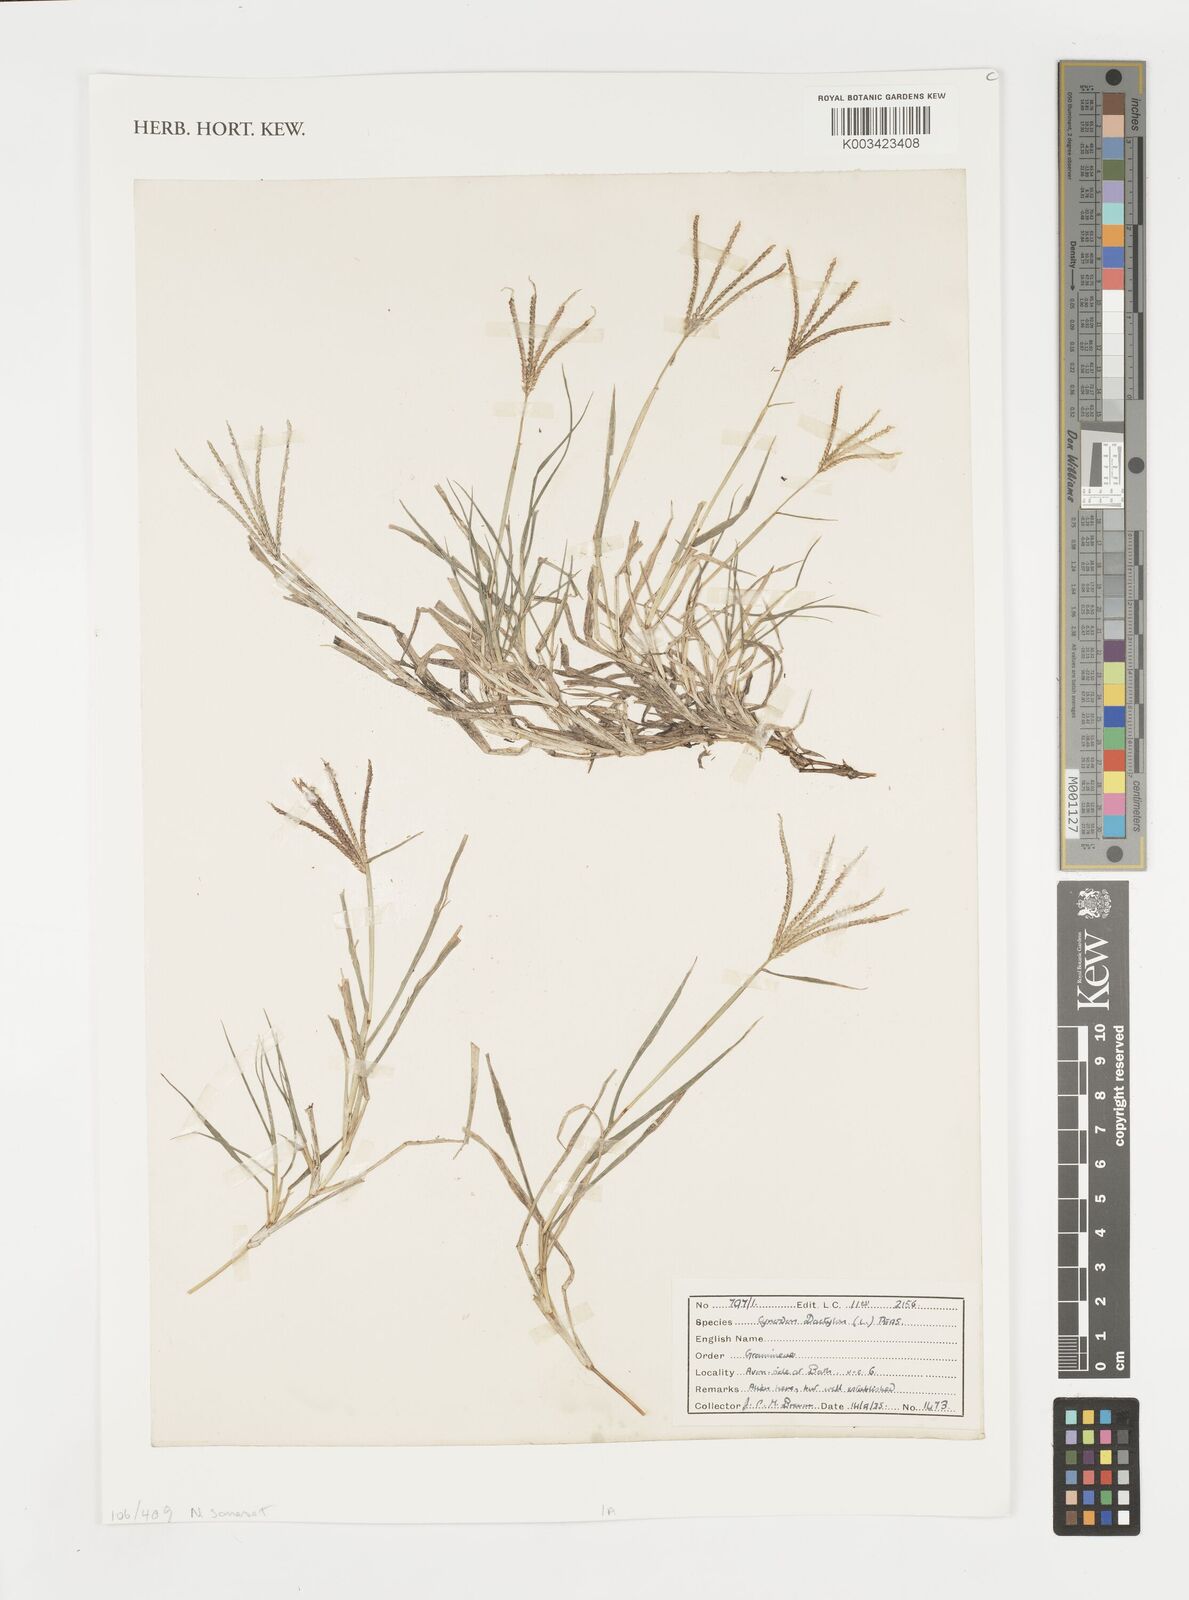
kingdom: Plantae
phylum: Tracheophyta
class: Liliopsida
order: Poales
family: Poaceae
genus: Cynodon
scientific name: Cynodon dactylon
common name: Bermuda grass
